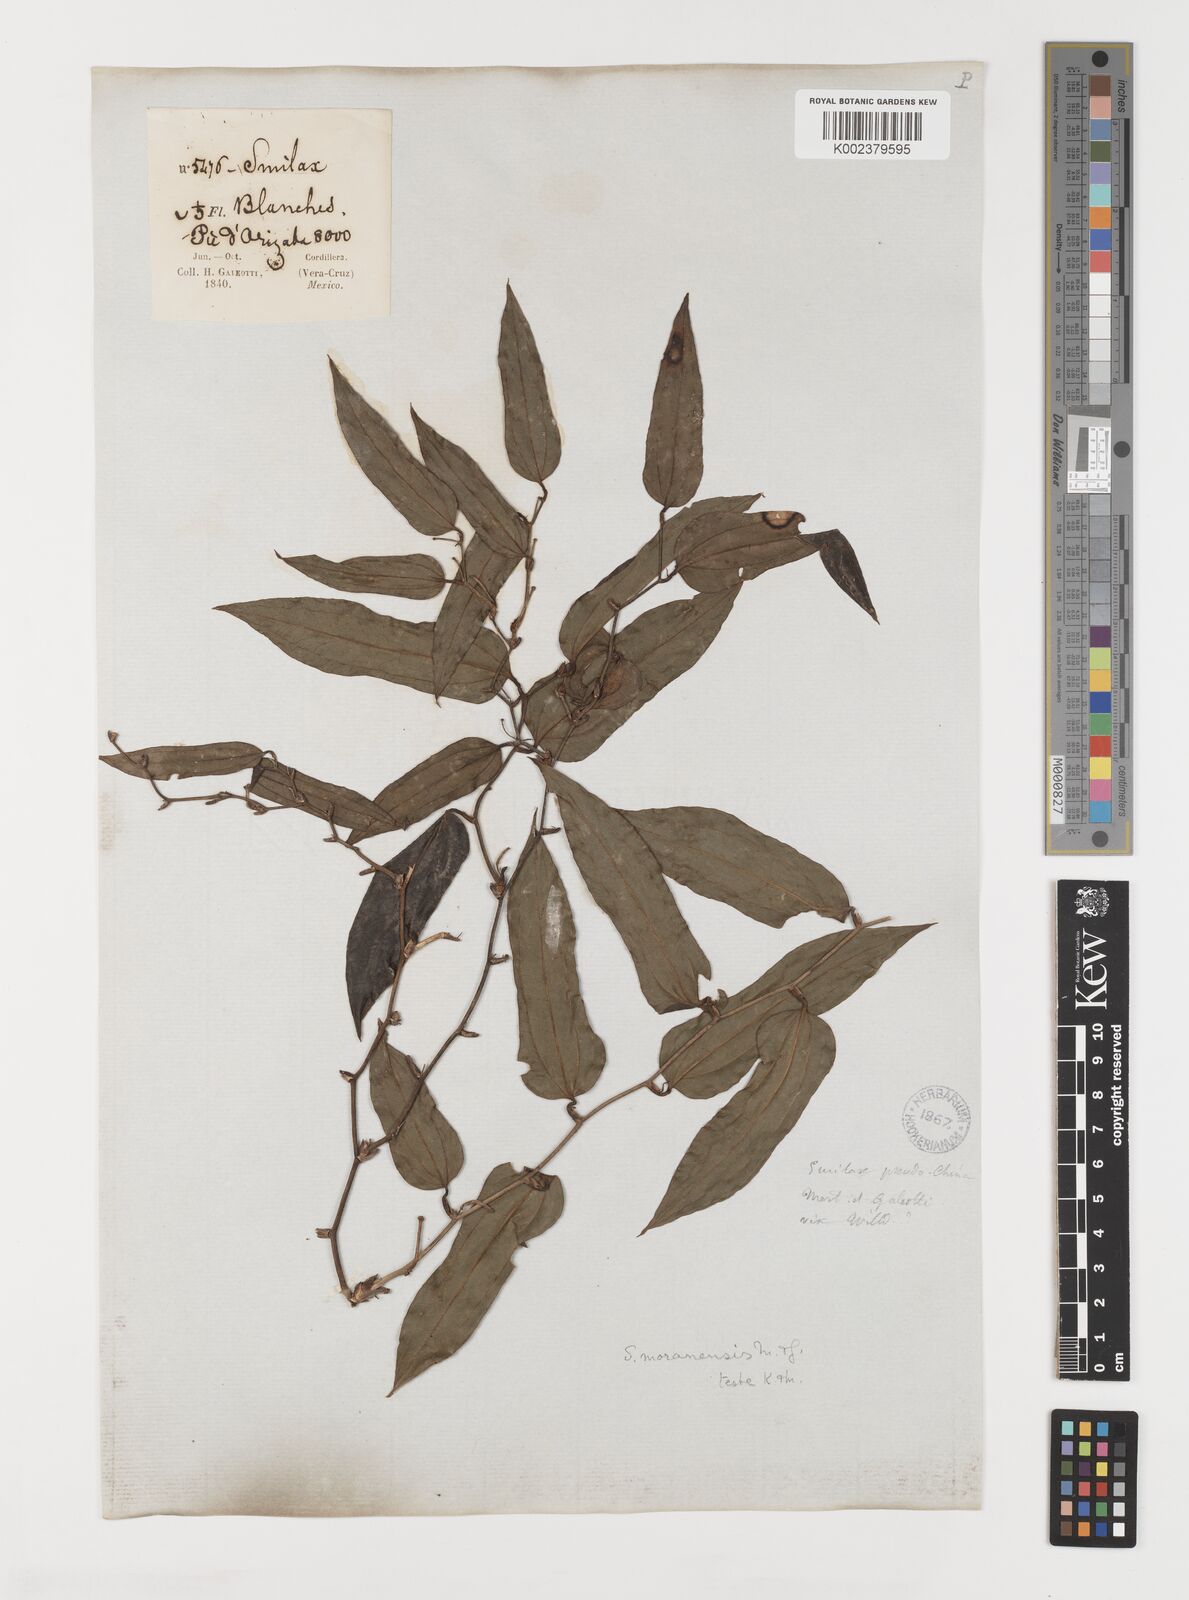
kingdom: Plantae
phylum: Tracheophyta
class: Liliopsida
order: Liliales
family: Smilacaceae
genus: Smilax
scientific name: Smilax moranensis
